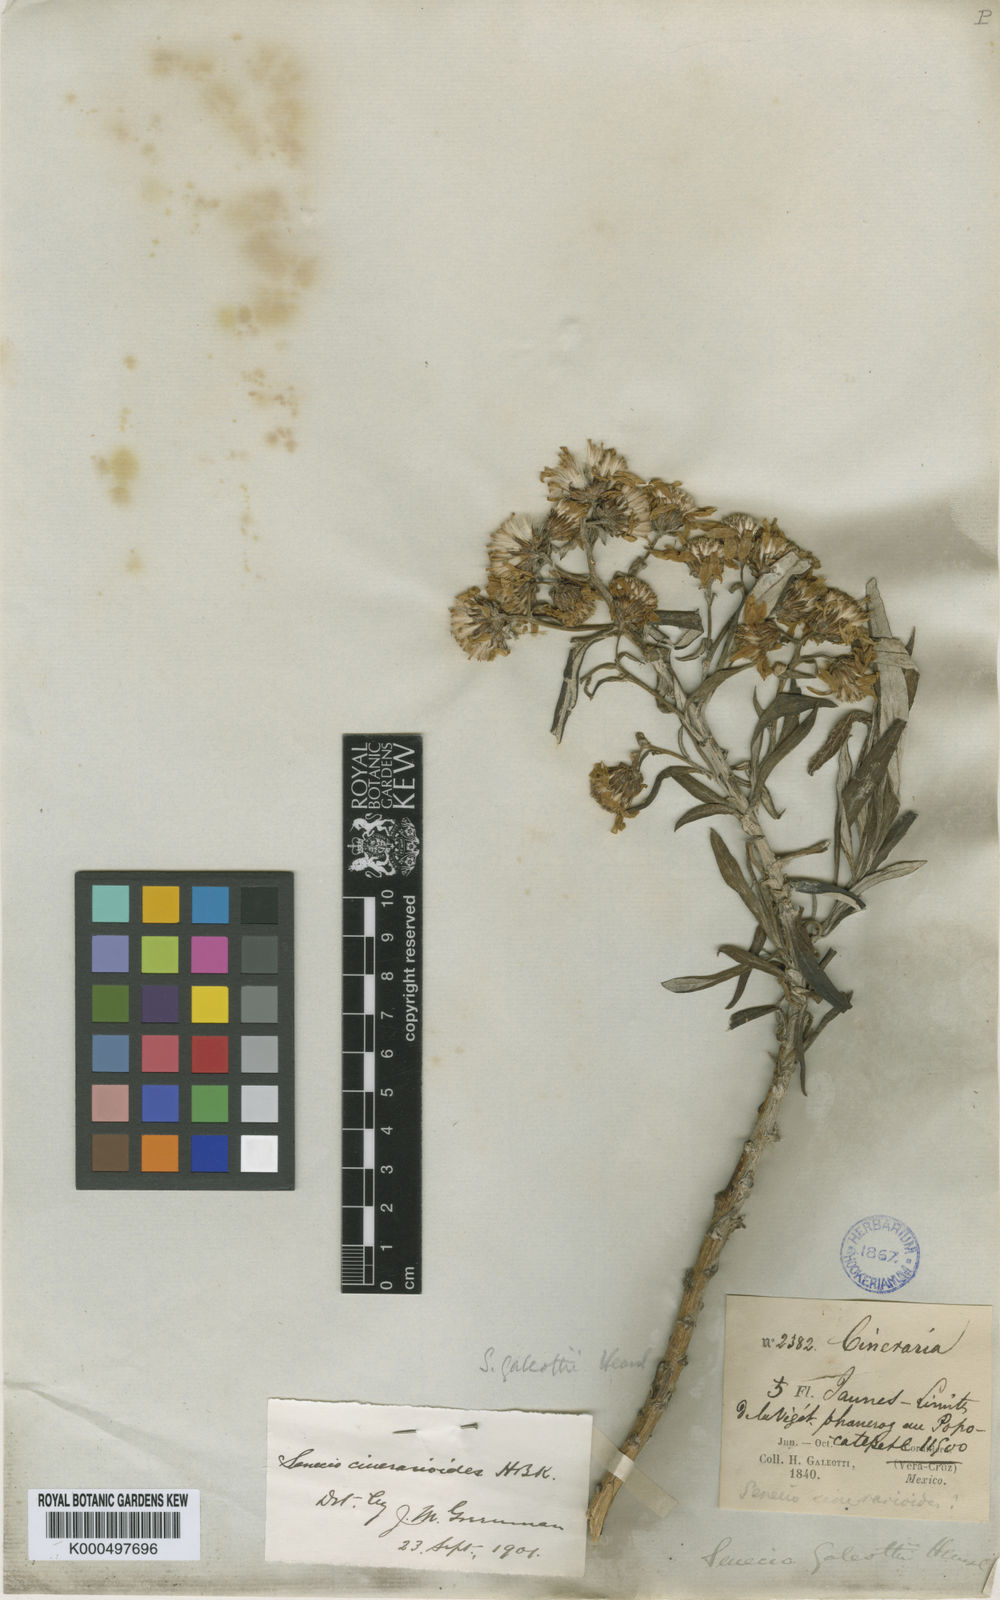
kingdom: Plantae
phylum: Tracheophyta
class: Magnoliopsida
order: Asterales
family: Asteraceae
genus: Senecio
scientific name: Senecio cinerarioides
